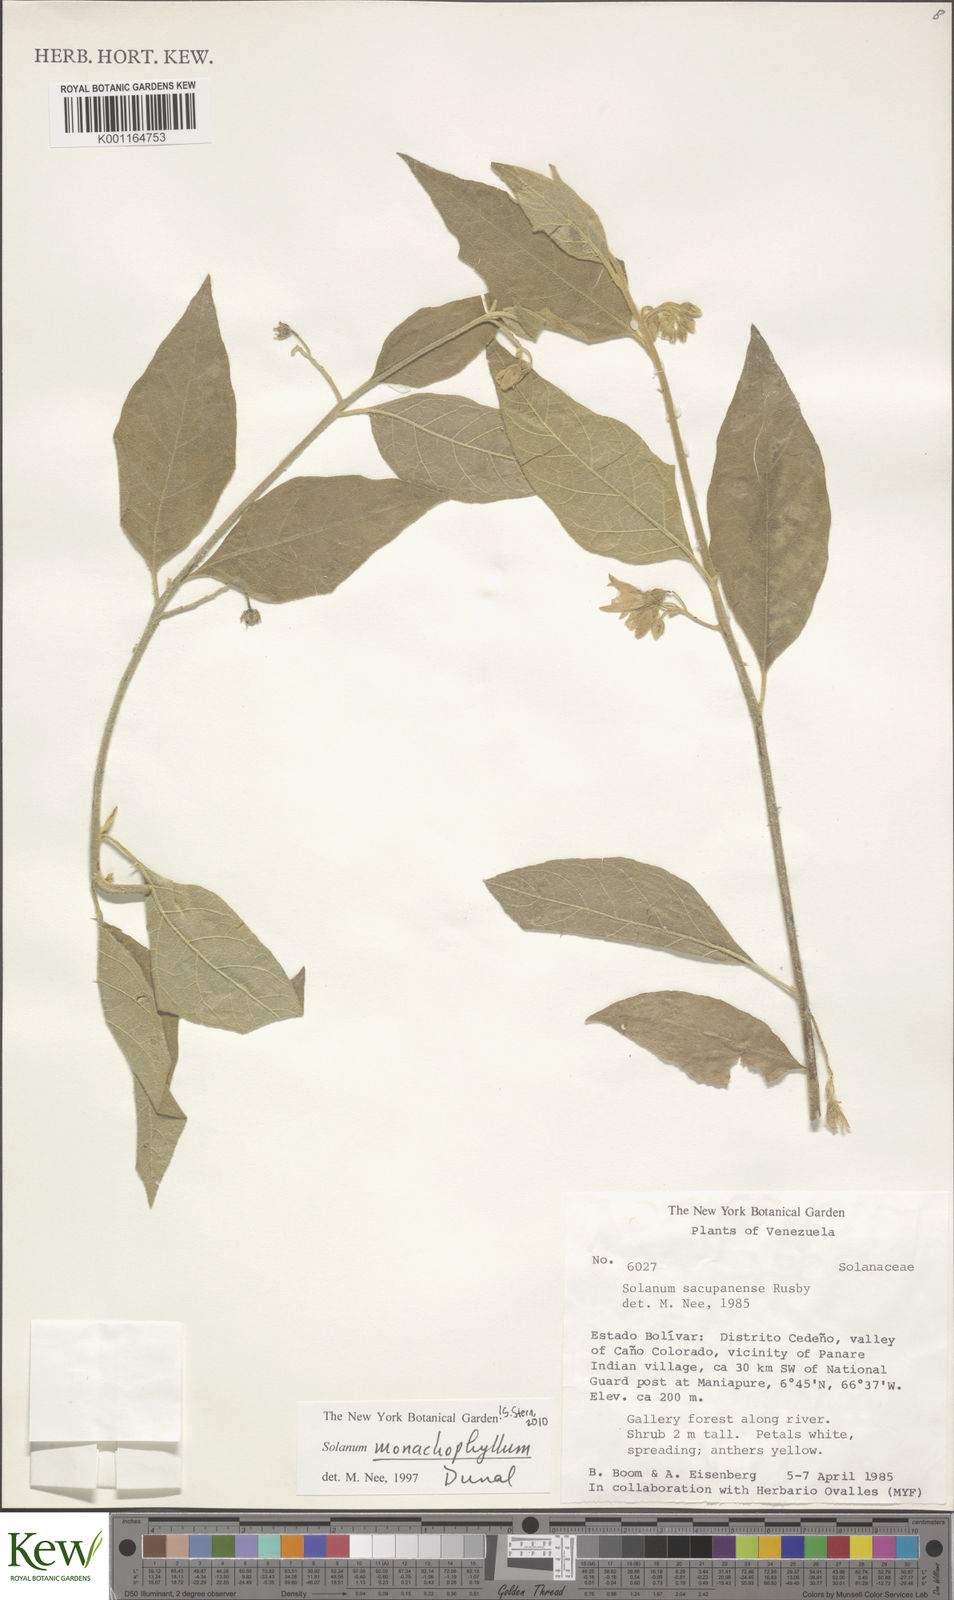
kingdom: Plantae
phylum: Tracheophyta
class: Magnoliopsida
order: Solanales
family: Solanaceae
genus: Solanum
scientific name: Solanum monachophyllum
